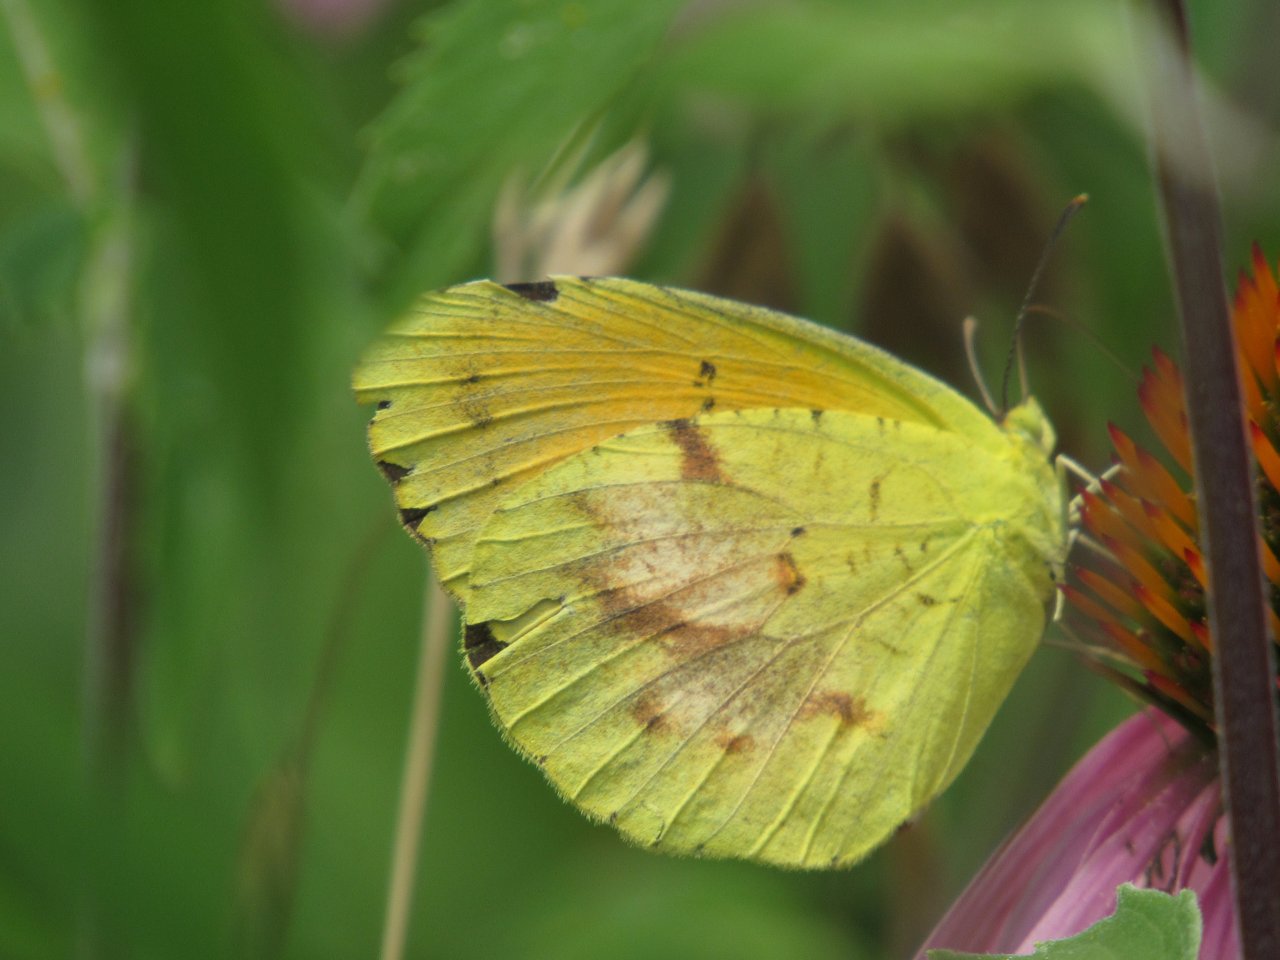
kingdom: Animalia
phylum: Arthropoda
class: Insecta
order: Lepidoptera
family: Pieridae
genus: Abaeis
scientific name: Abaeis nicippe
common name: Sleepy Orange
